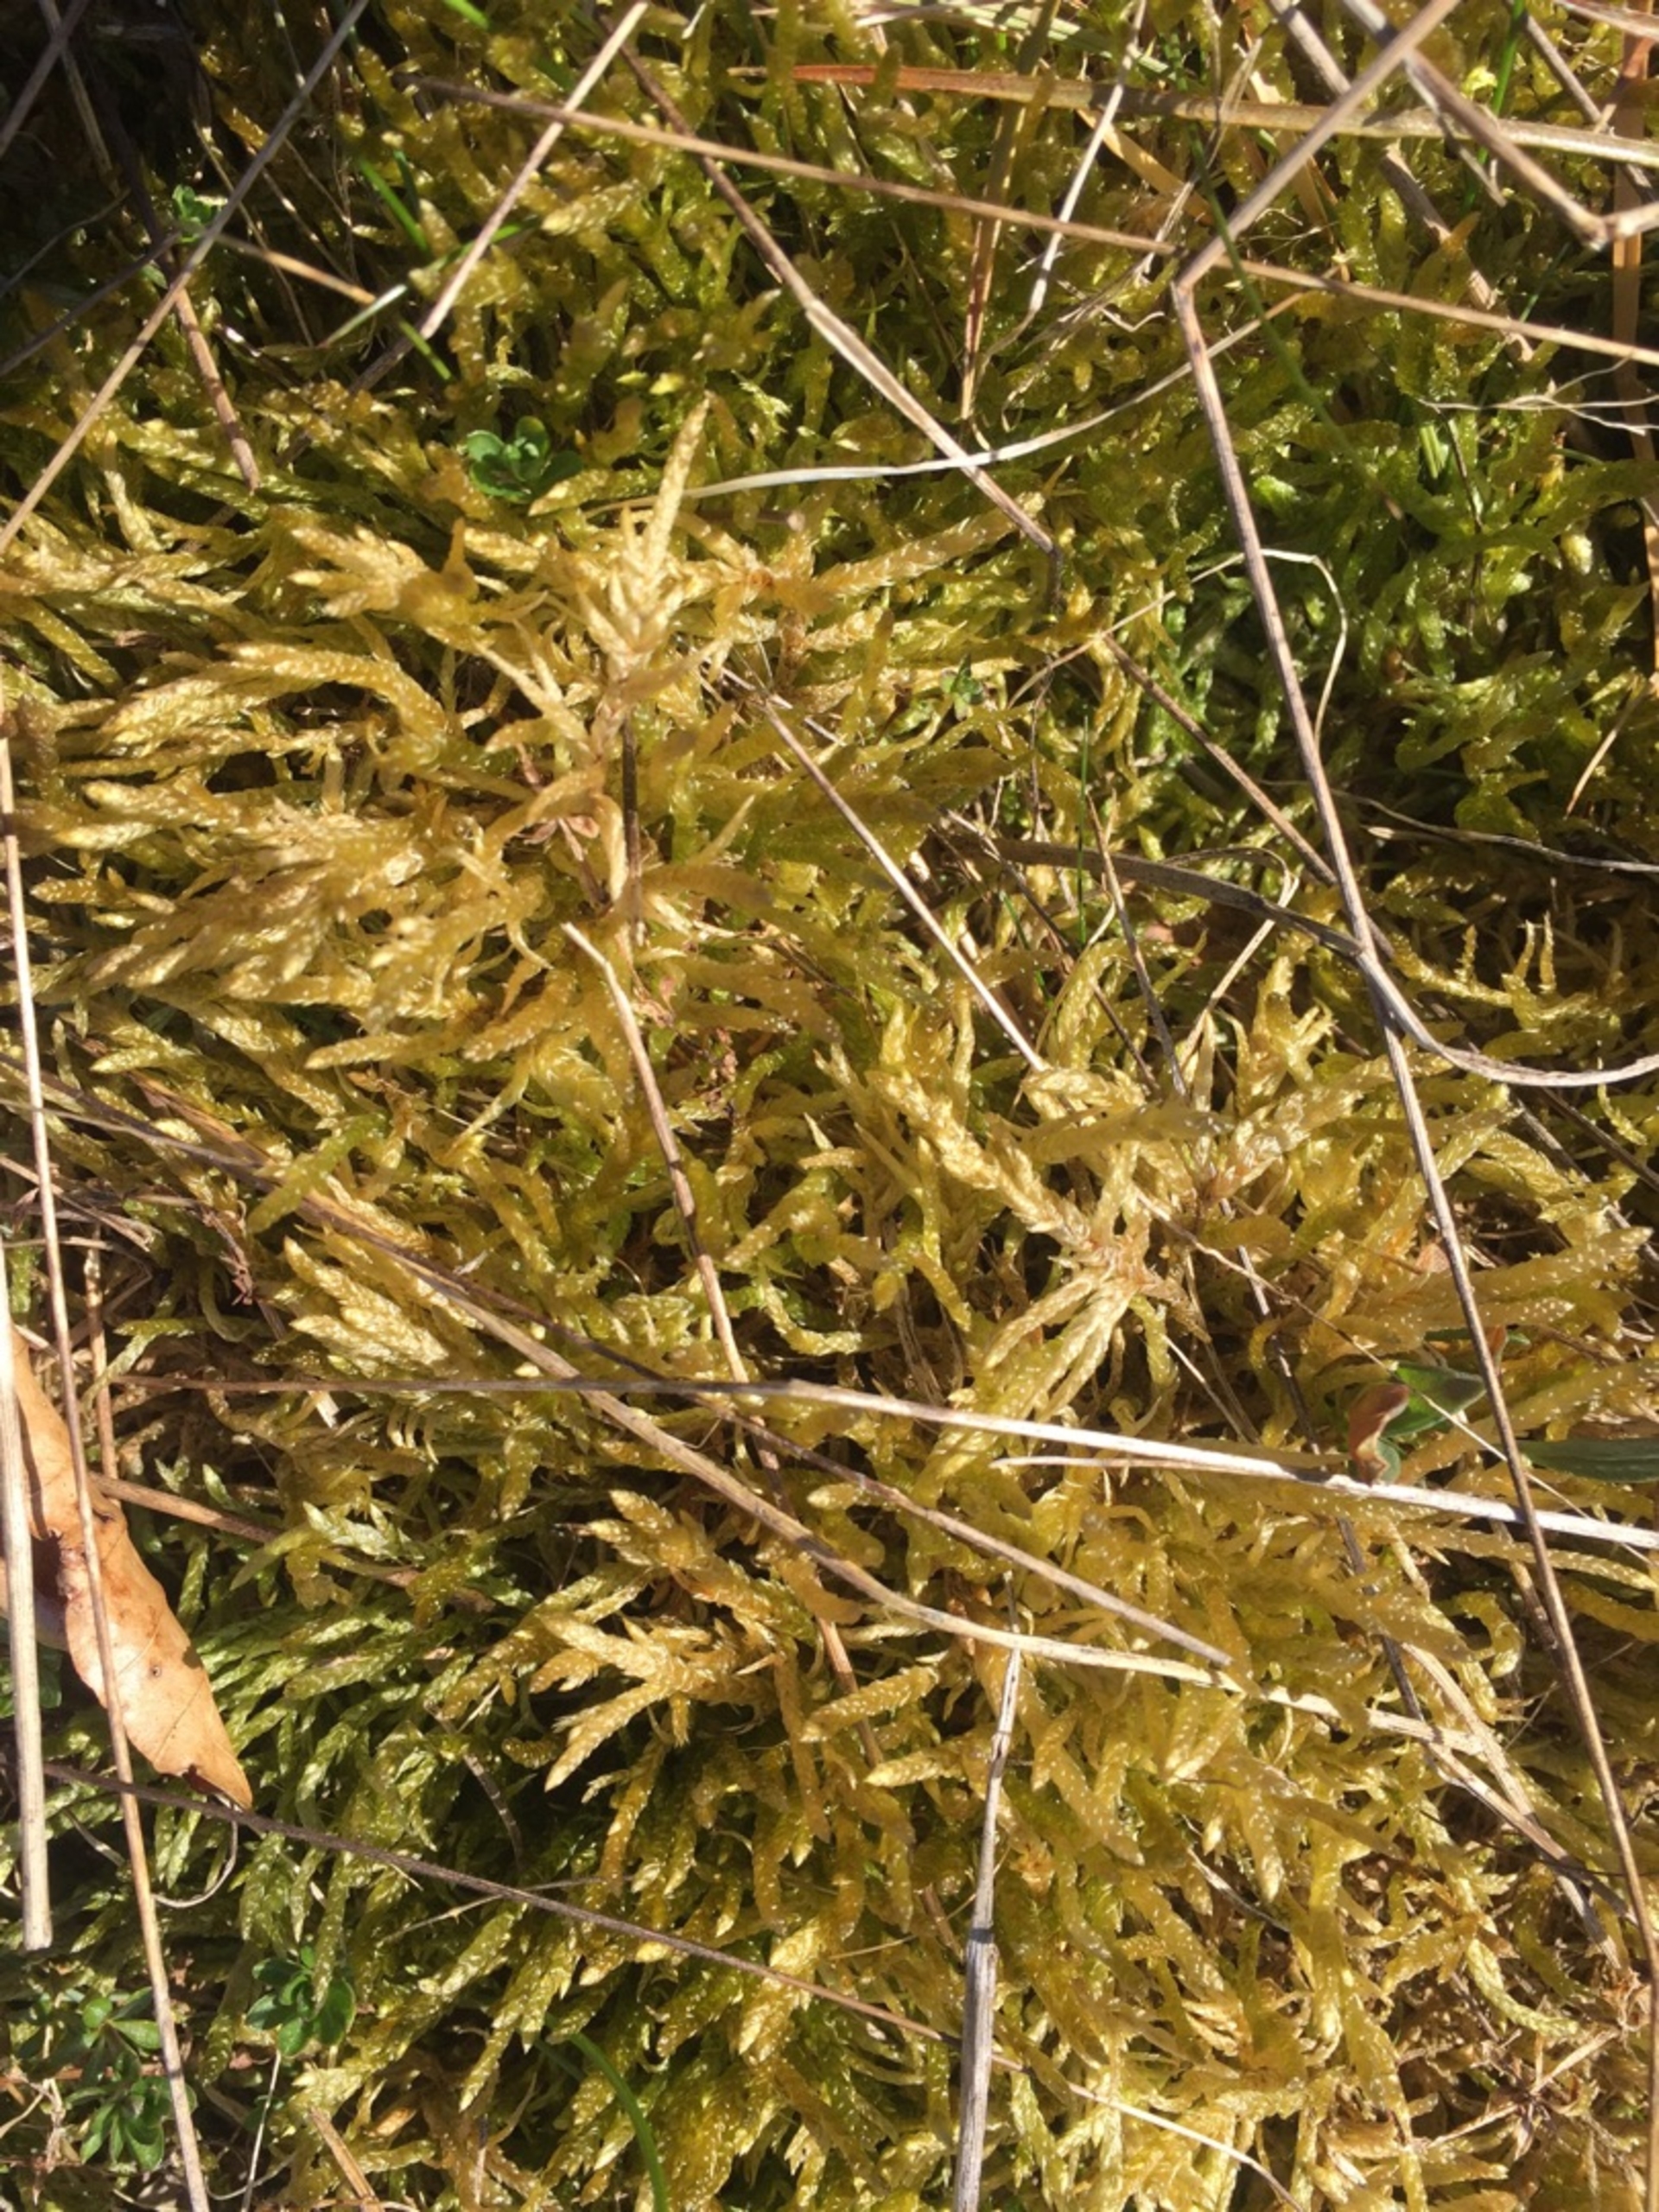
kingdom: Plantae
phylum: Bryophyta
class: Bryopsida
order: Hypnales
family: Brachytheciaceae
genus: Pseudoscleropodium
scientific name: Pseudoscleropodium purum
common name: Hulbladet fedtmos
